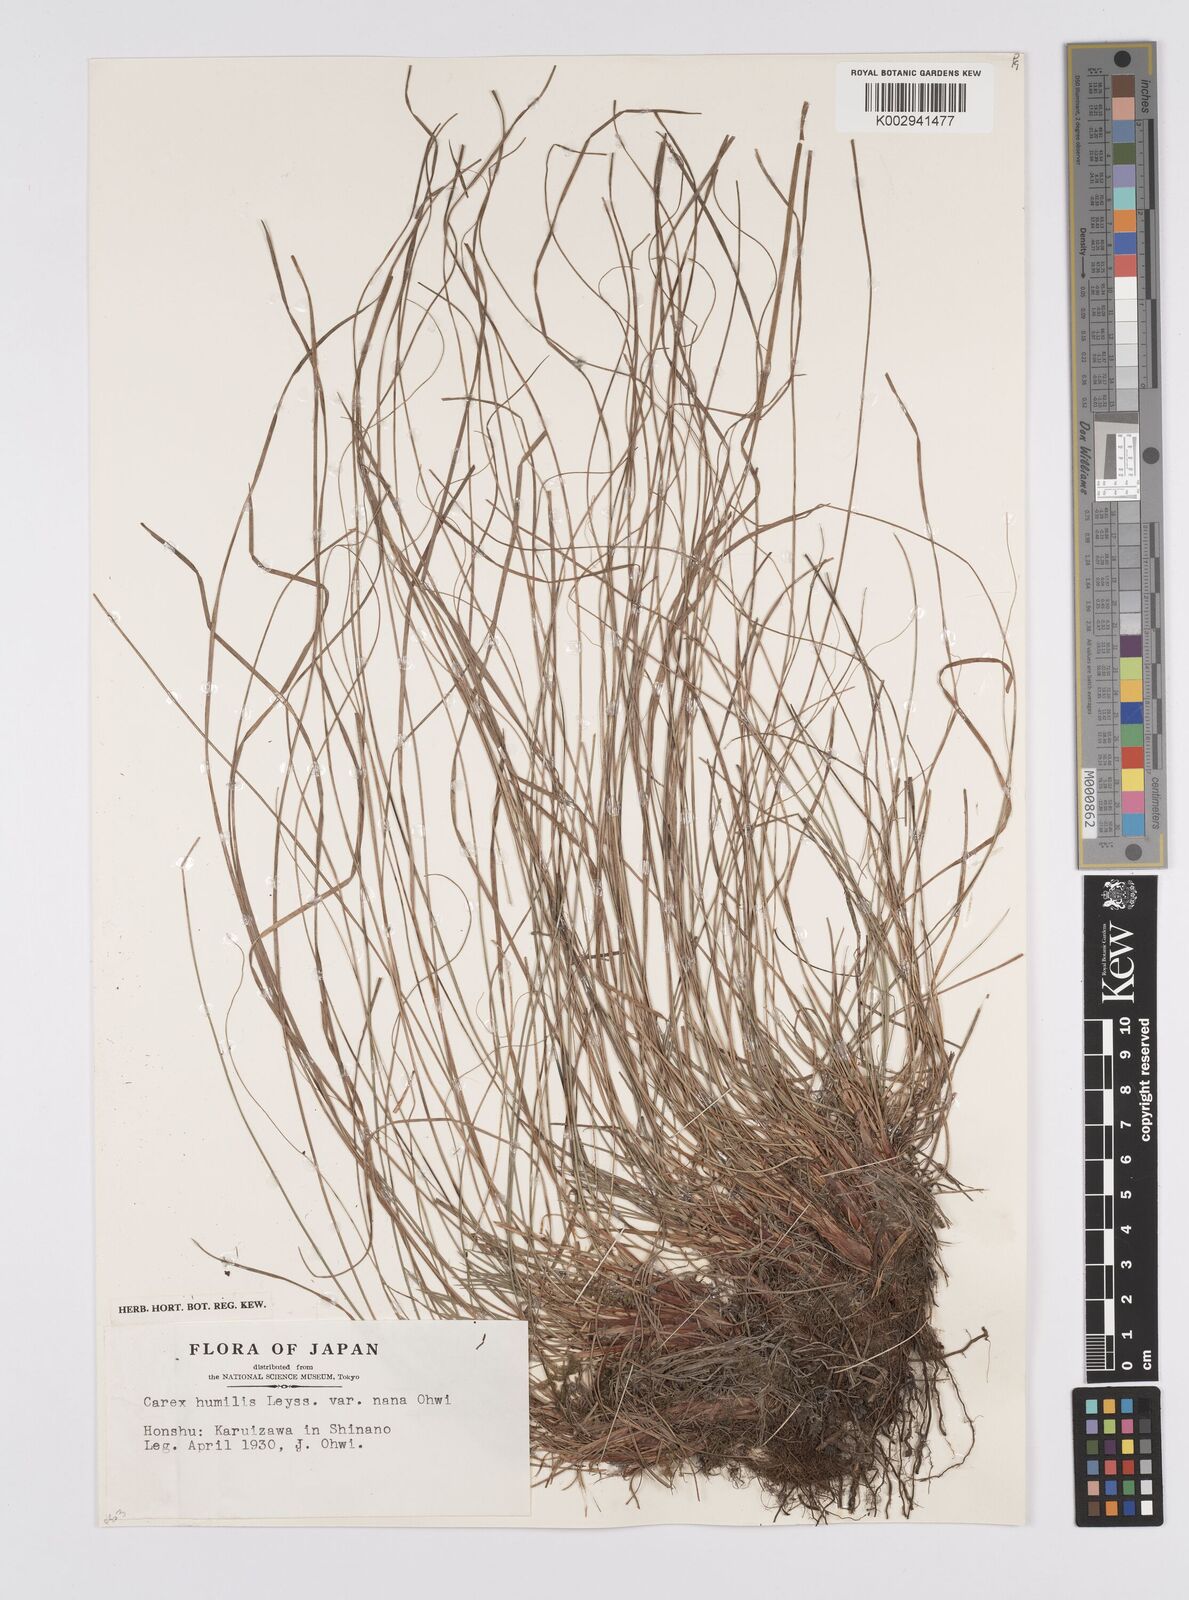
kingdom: Plantae
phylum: Tracheophyta
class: Liliopsida
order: Poales
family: Cyperaceae
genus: Carex
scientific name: Carex humilis
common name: Dwarf sedge
